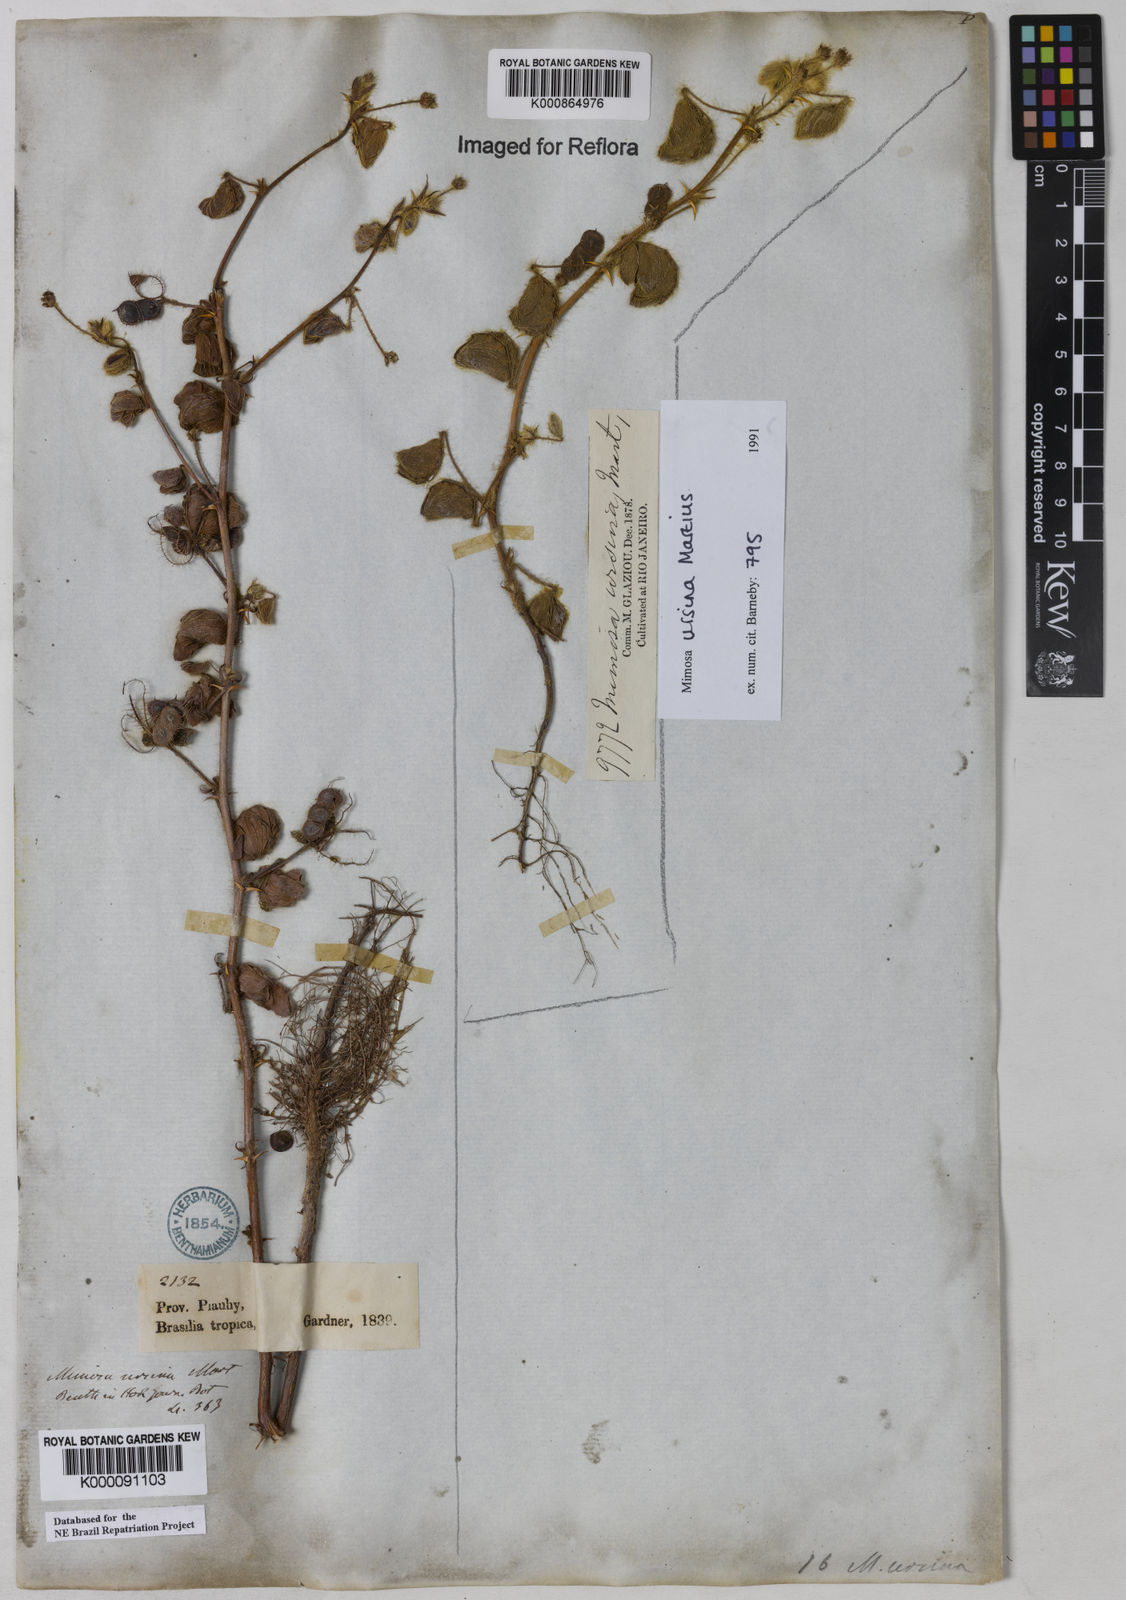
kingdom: Plantae
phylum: Tracheophyta
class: Magnoliopsida
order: Fabales
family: Fabaceae
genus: Mimosa
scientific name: Mimosa ursina
